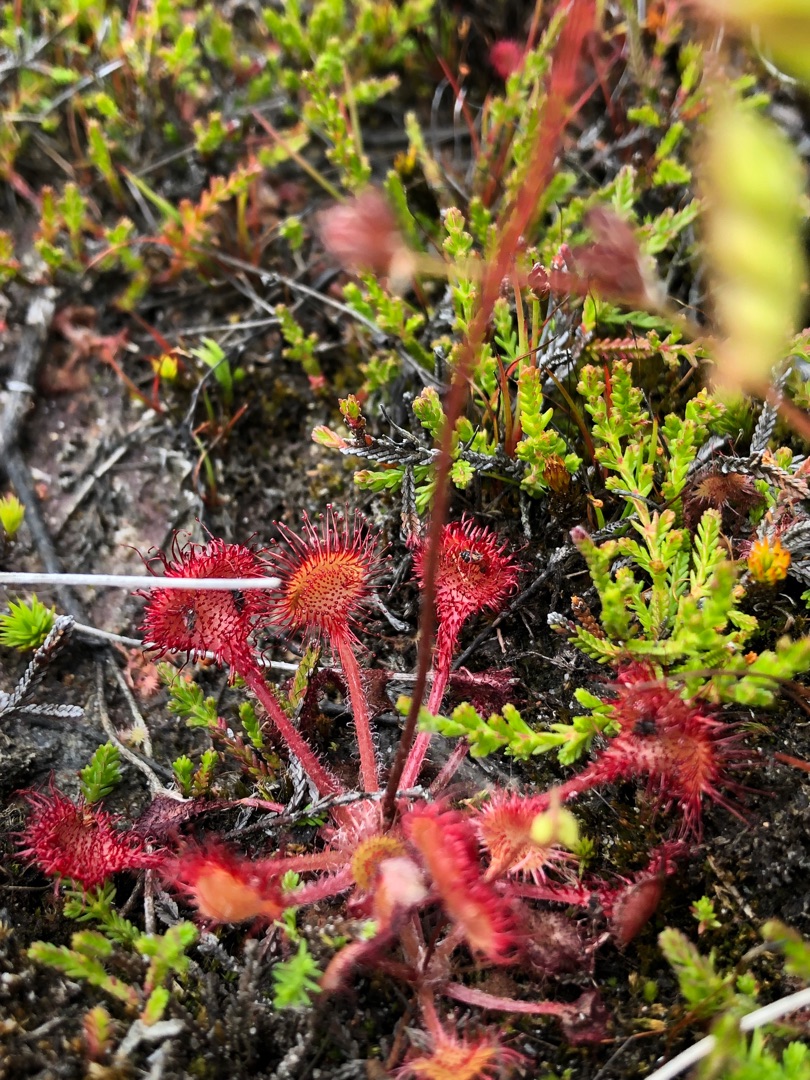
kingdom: Plantae
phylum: Tracheophyta
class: Magnoliopsida
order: Caryophyllales
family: Droseraceae
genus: Drosera
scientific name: Drosera rotundifolia
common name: Rundbladet soldug
